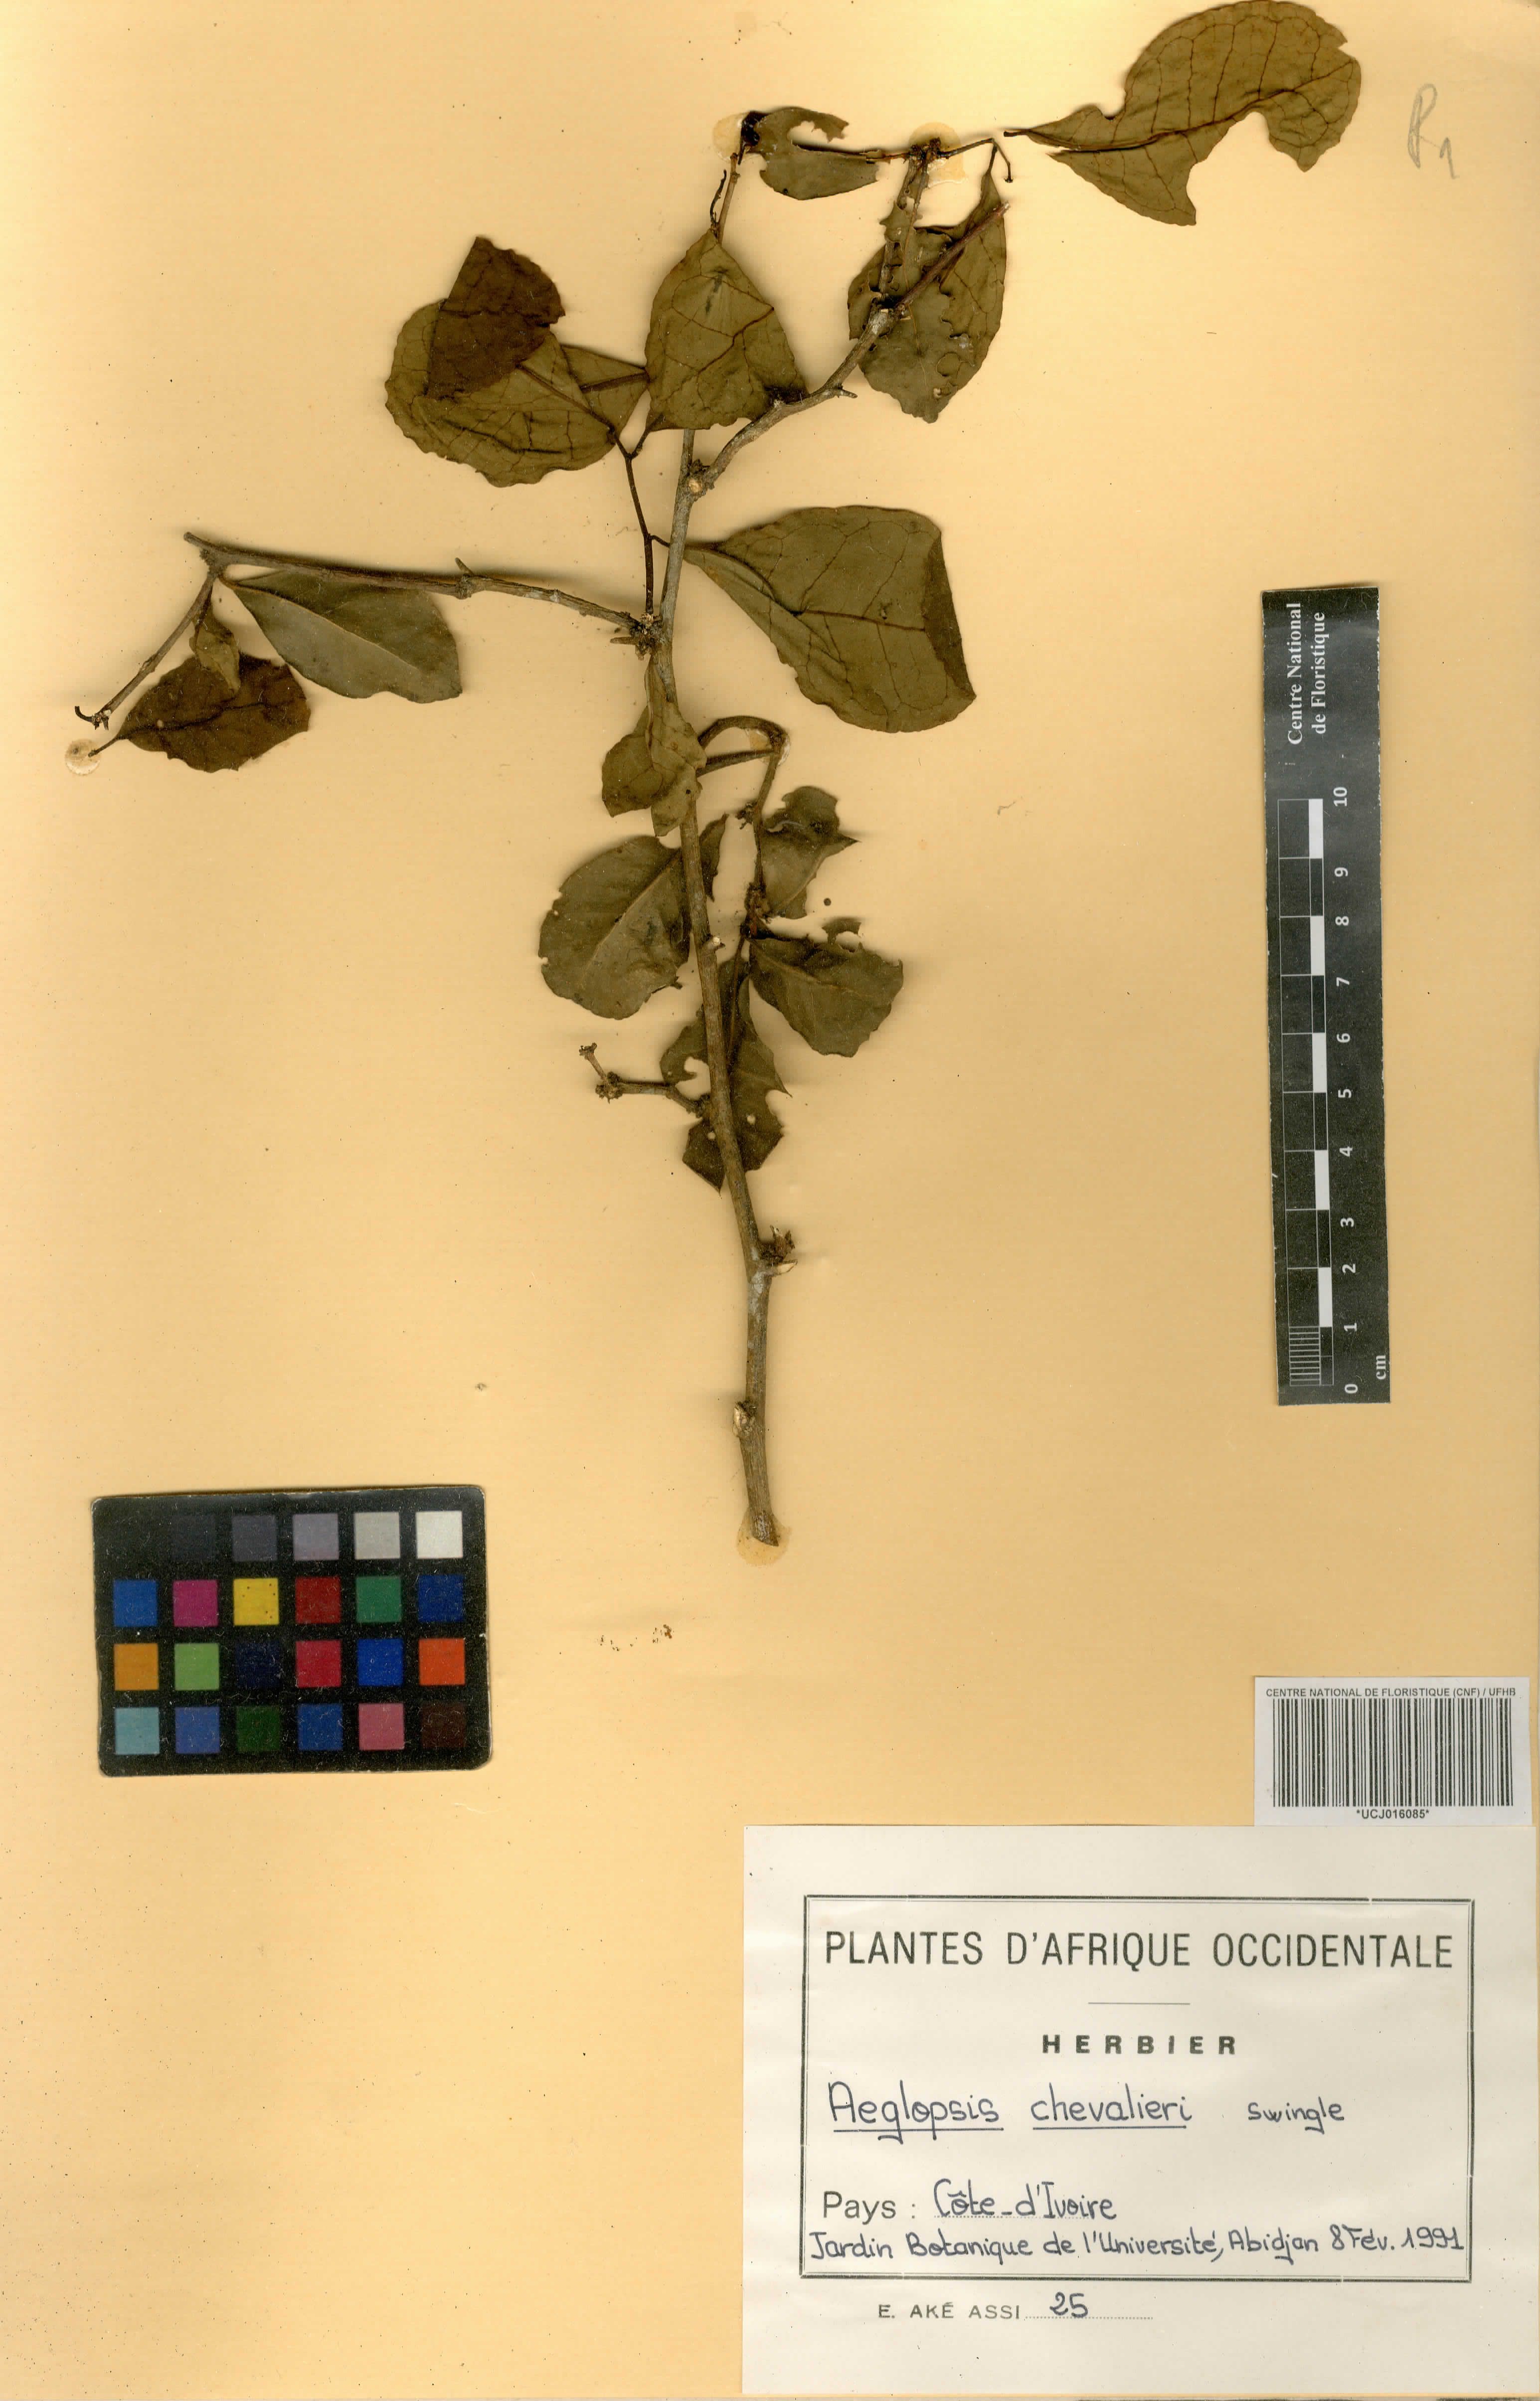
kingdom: Plantae
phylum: Tracheophyta
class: Magnoliopsida
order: Sapindales
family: Rutaceae
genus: Aeglopsis
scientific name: Aeglopsis chevalieri
